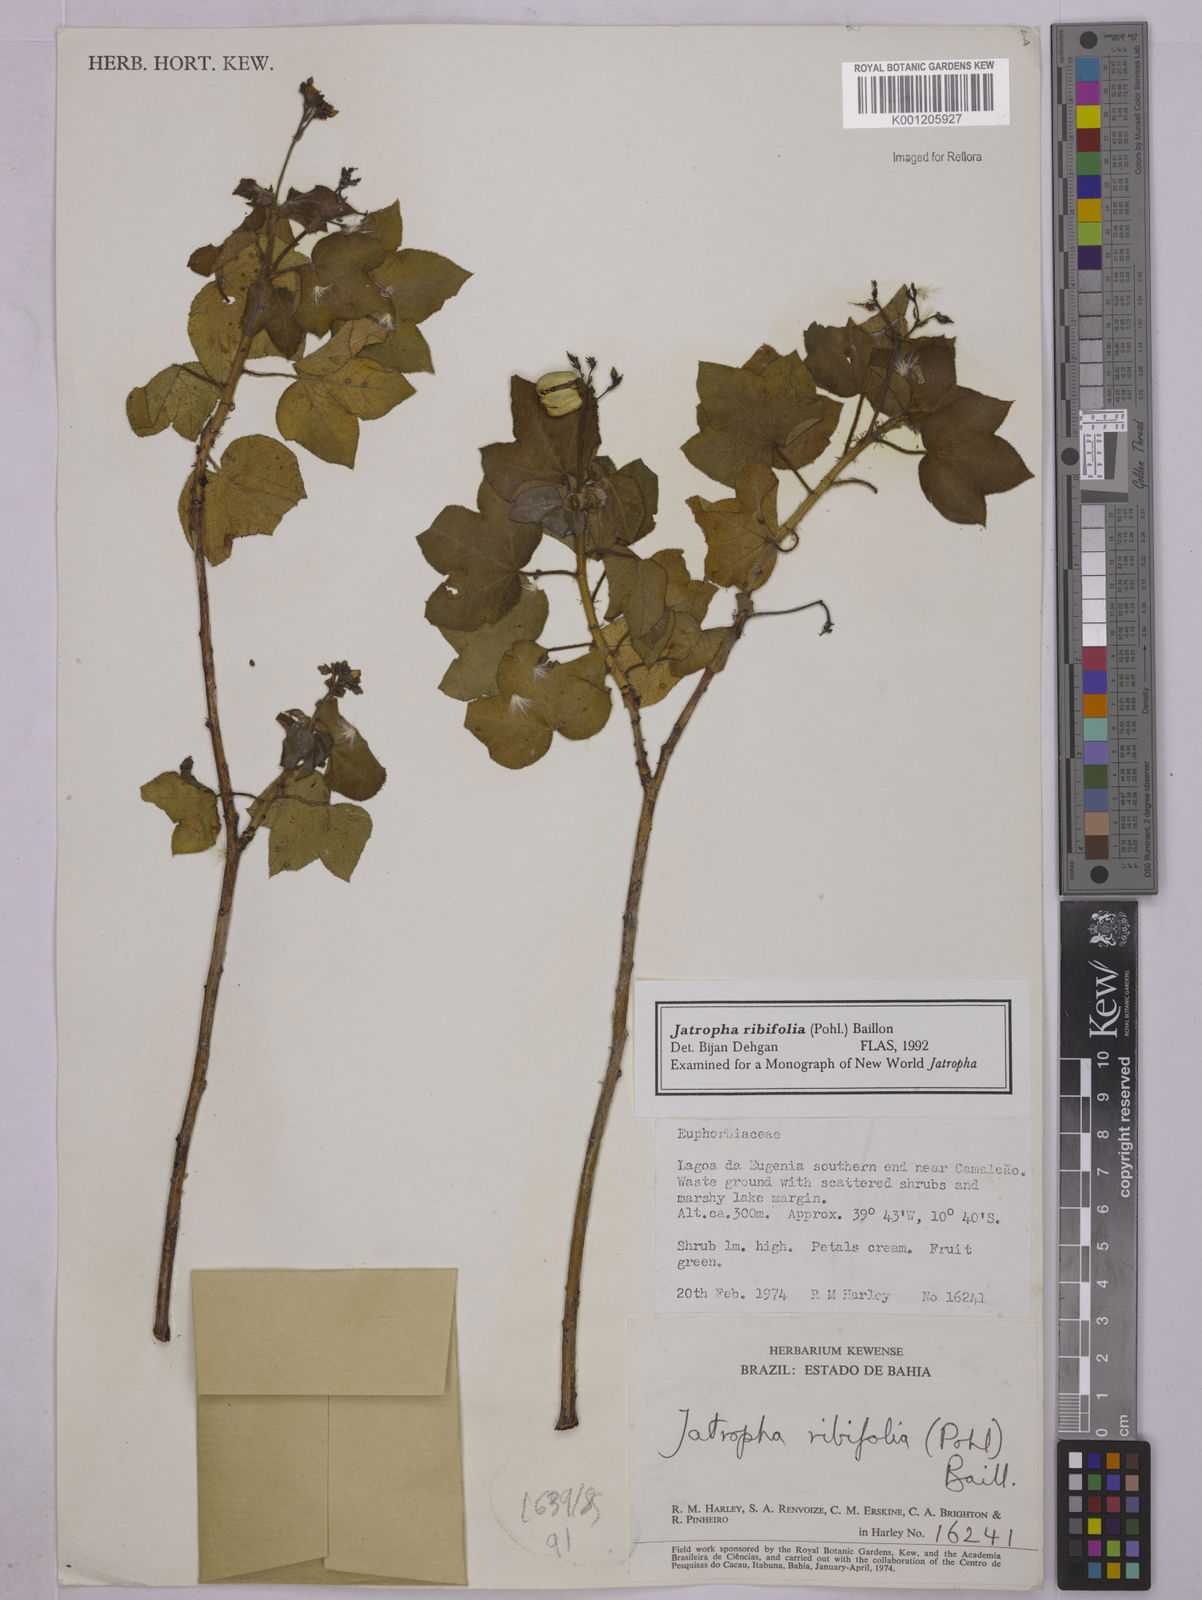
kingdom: Plantae
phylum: Tracheophyta
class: Magnoliopsida
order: Malpighiales
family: Euphorbiaceae
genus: Jatropha
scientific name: Jatropha ribifolia
